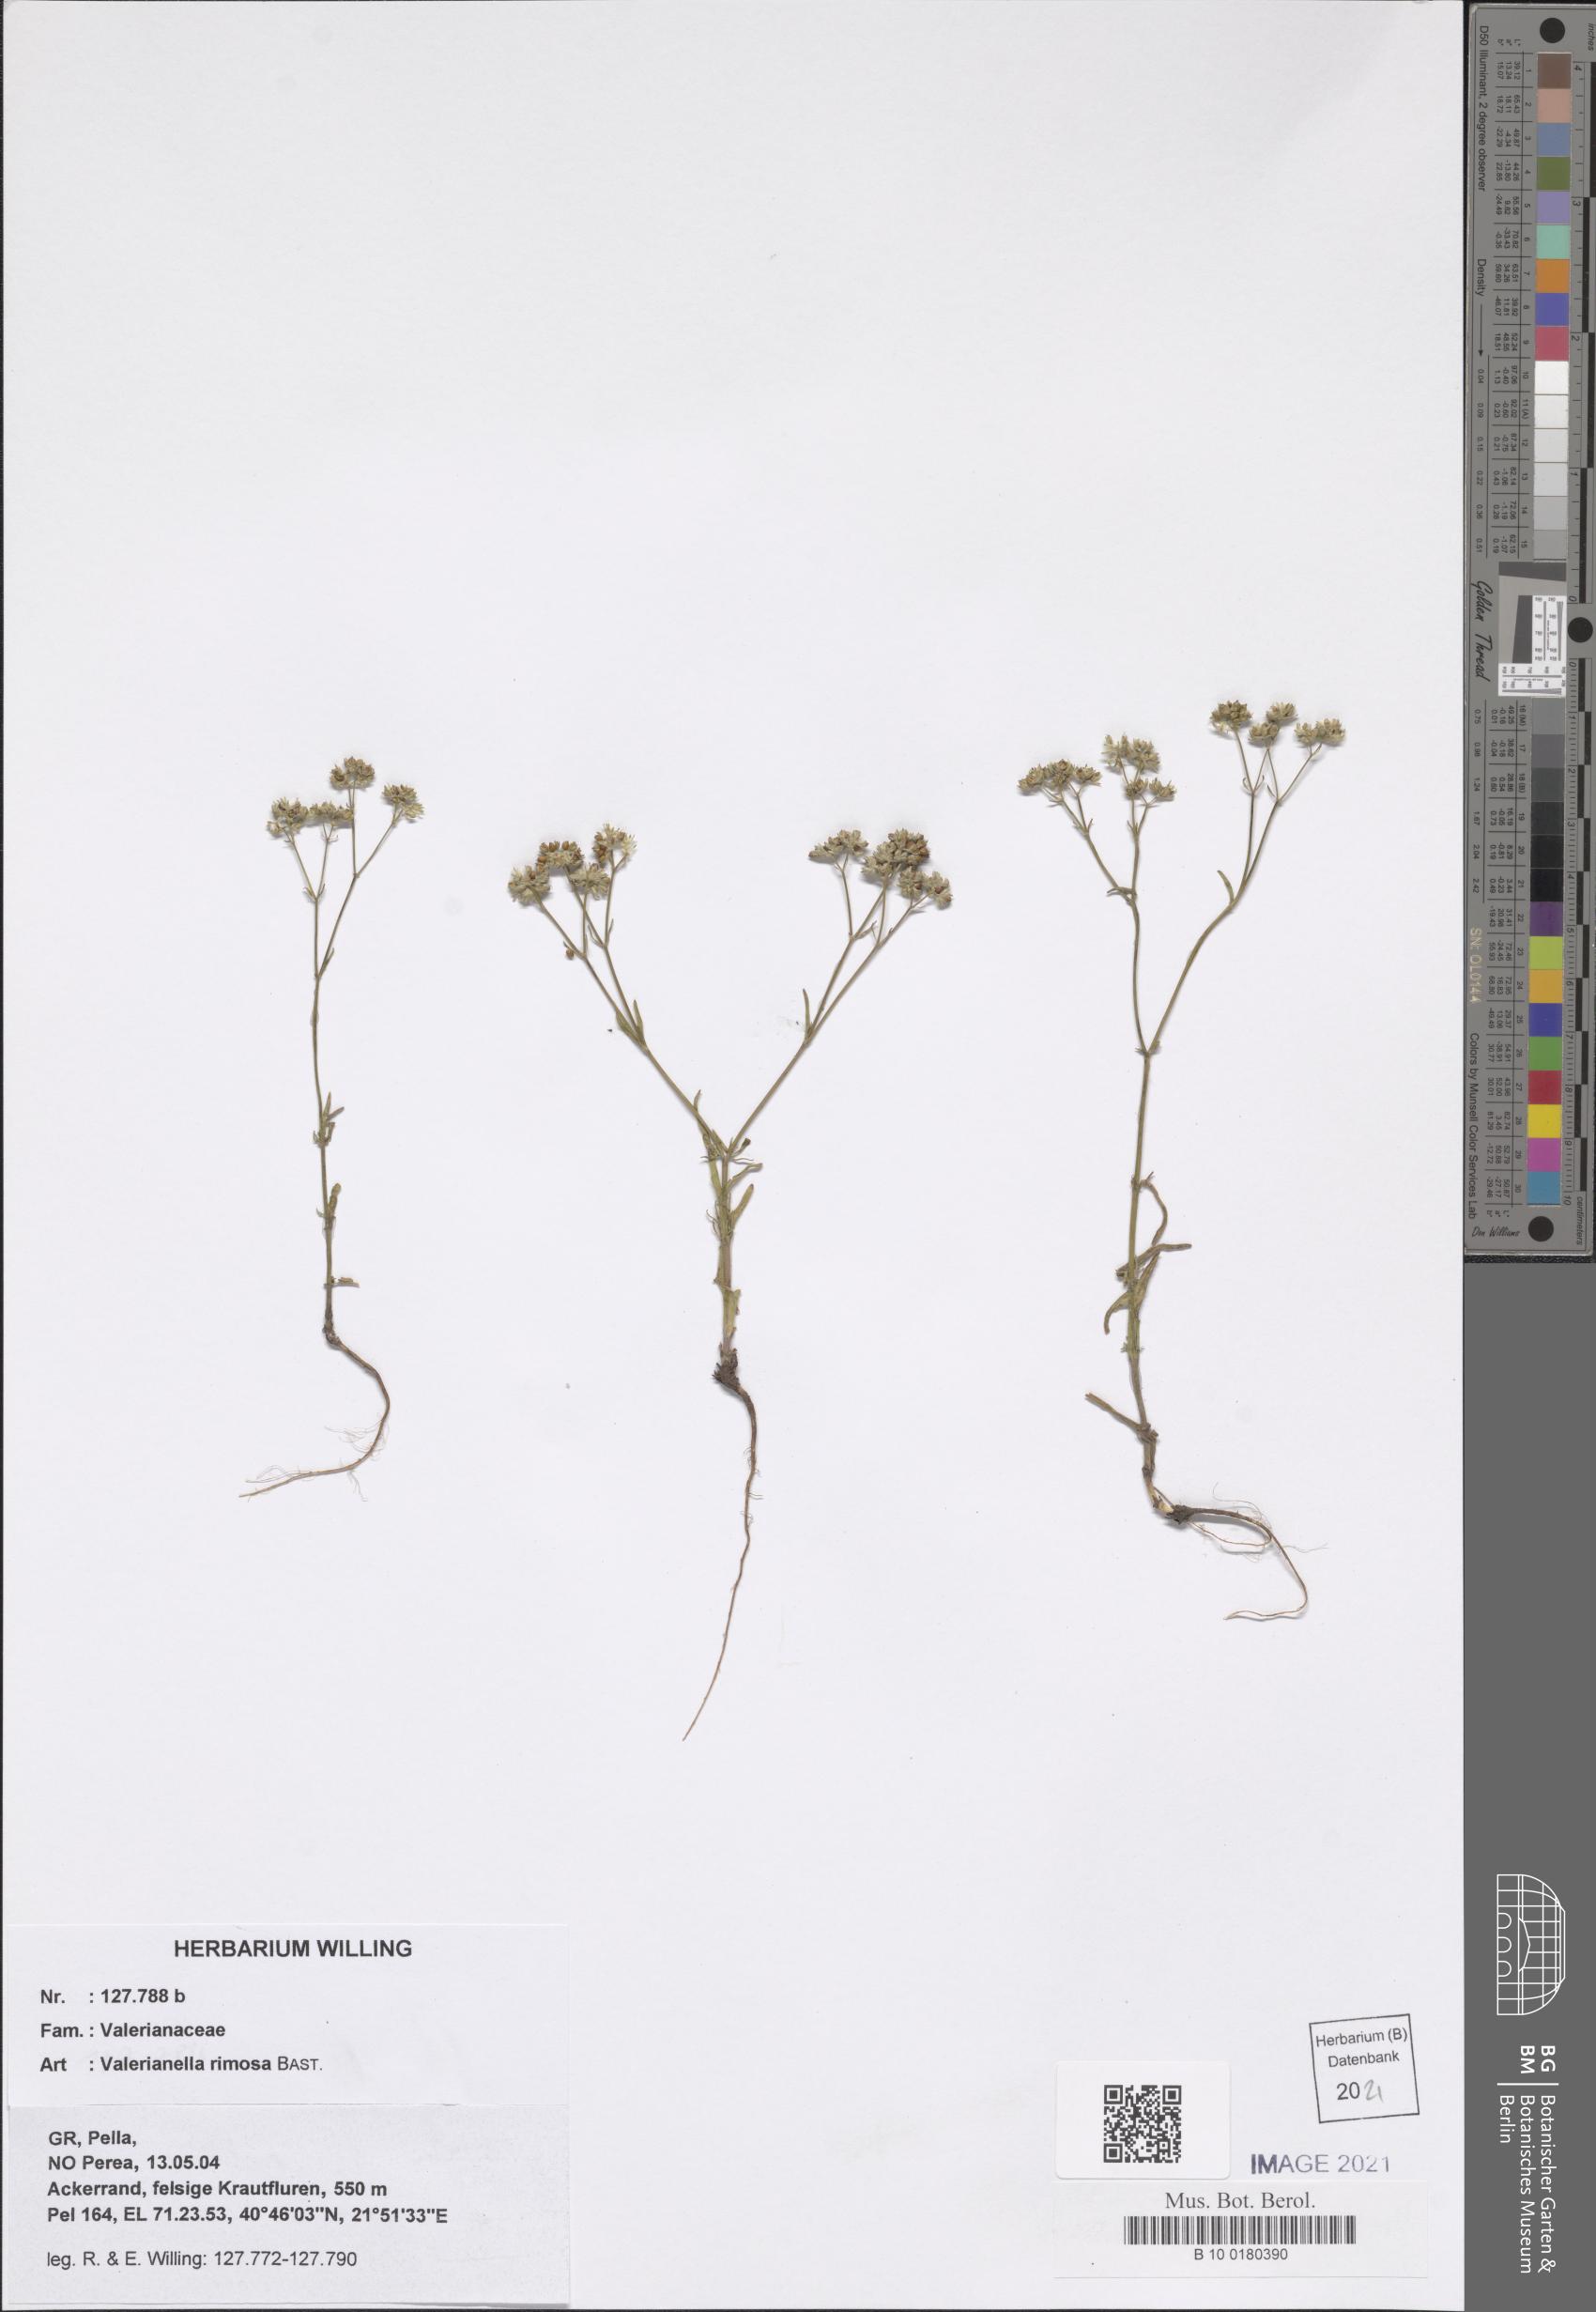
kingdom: Plantae
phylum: Tracheophyta
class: Magnoliopsida
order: Dipsacales
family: Caprifoliaceae
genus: Valerianella
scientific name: Valerianella rimosa
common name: Broad-fruited cornsalad
